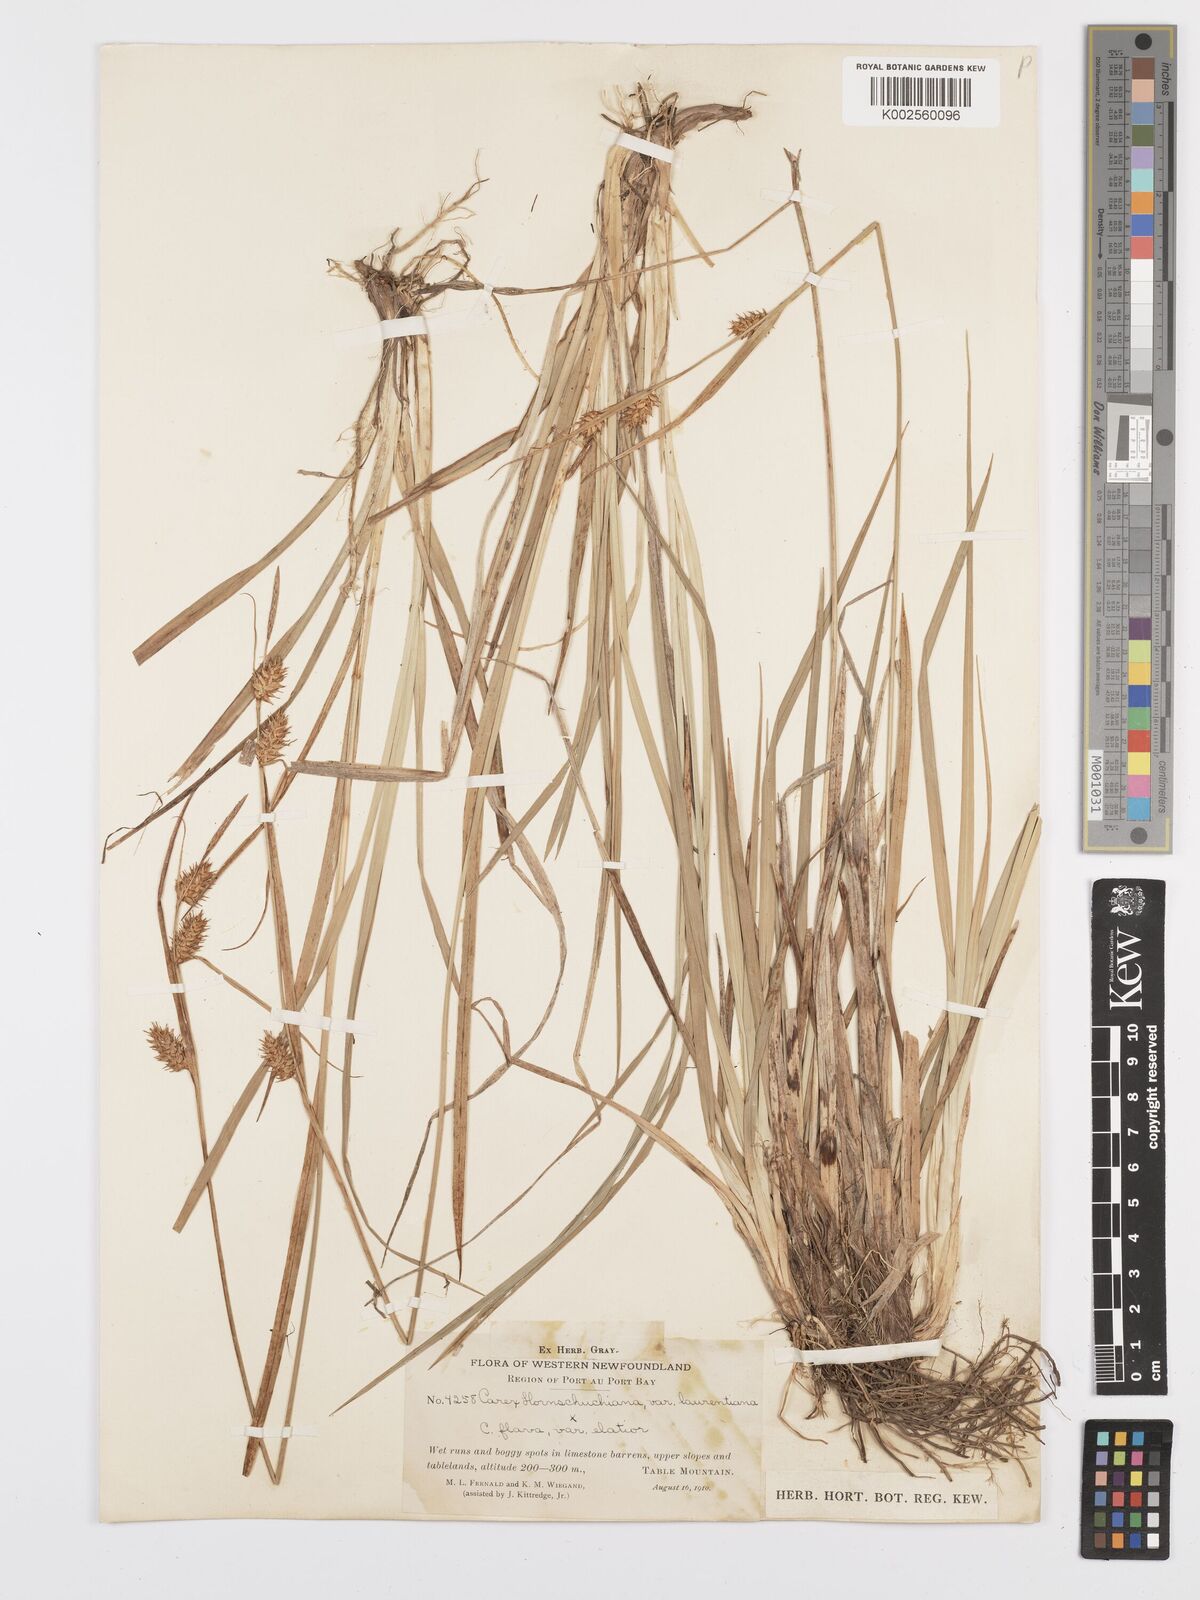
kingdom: Plantae
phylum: Tracheophyta
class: Liliopsida
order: Poales
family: Cyperaceae
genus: Carex
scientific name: Carex hostiana
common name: Tawny sedge
